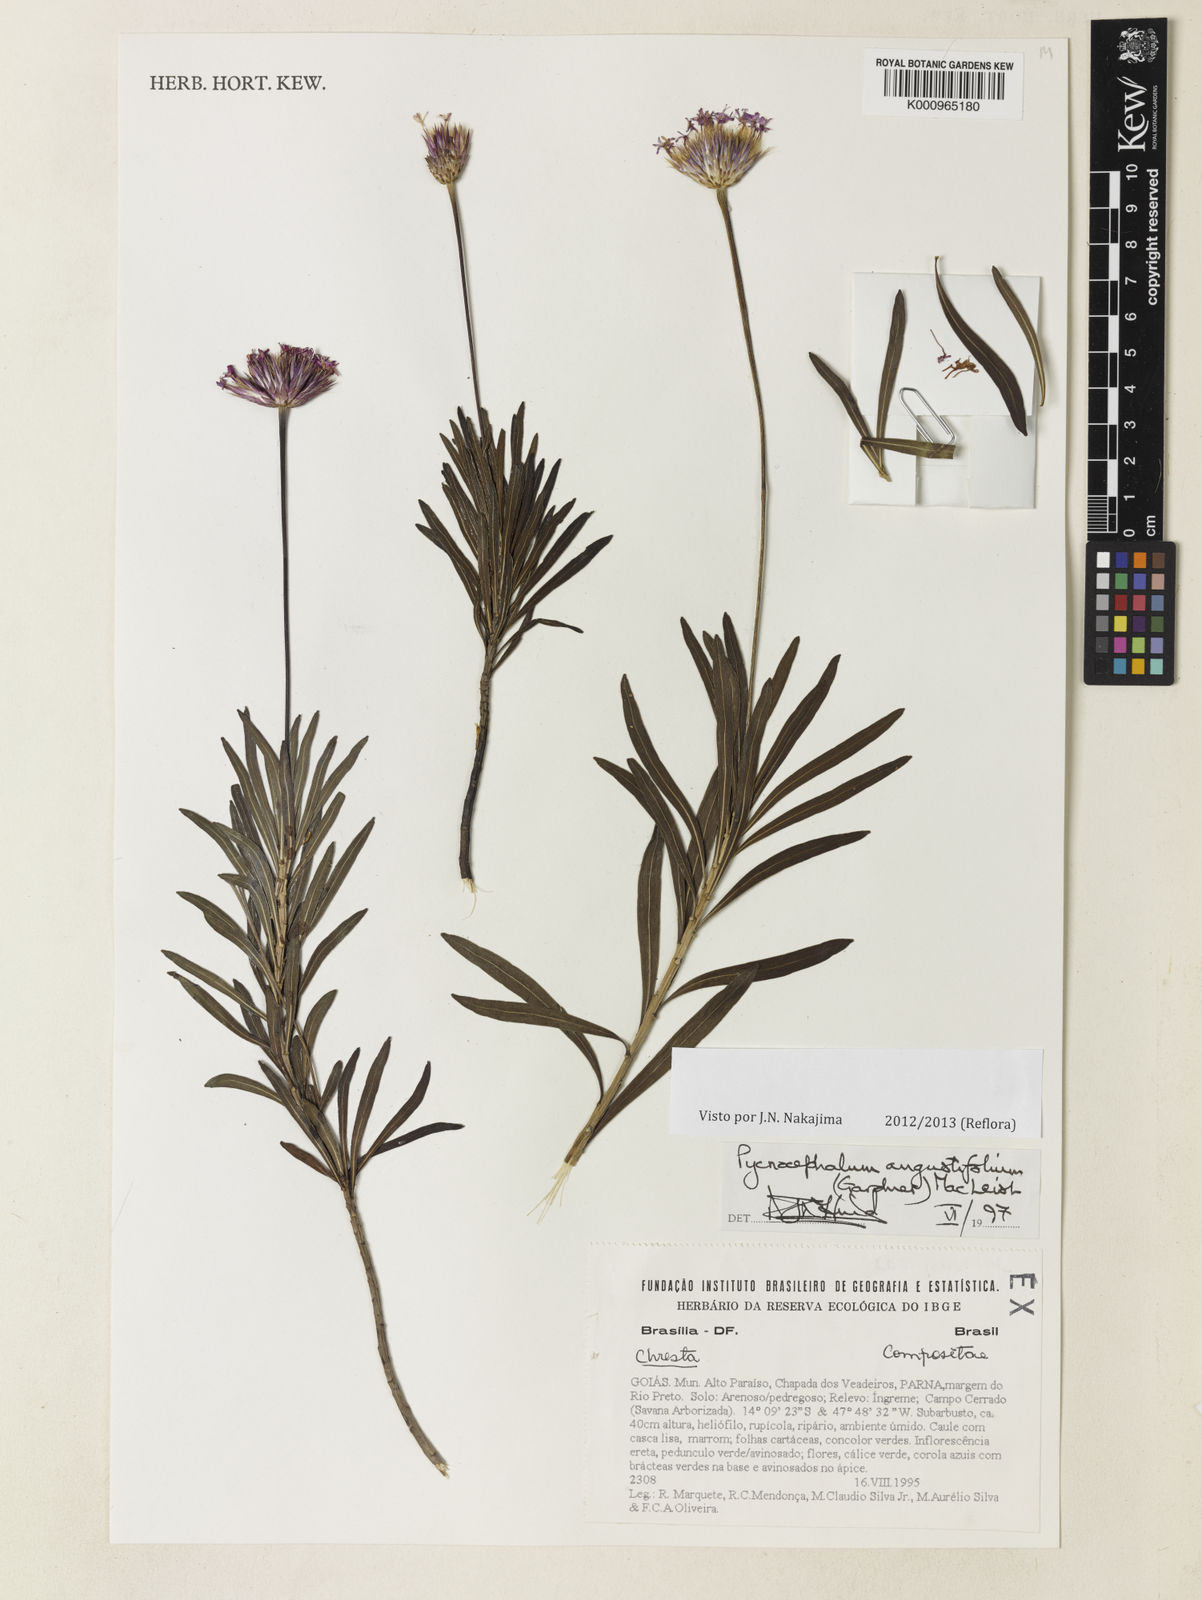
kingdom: Plantae
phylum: Tracheophyta
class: Magnoliopsida
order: Asterales
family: Asteraceae
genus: Chresta
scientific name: Chresta angustifolia
